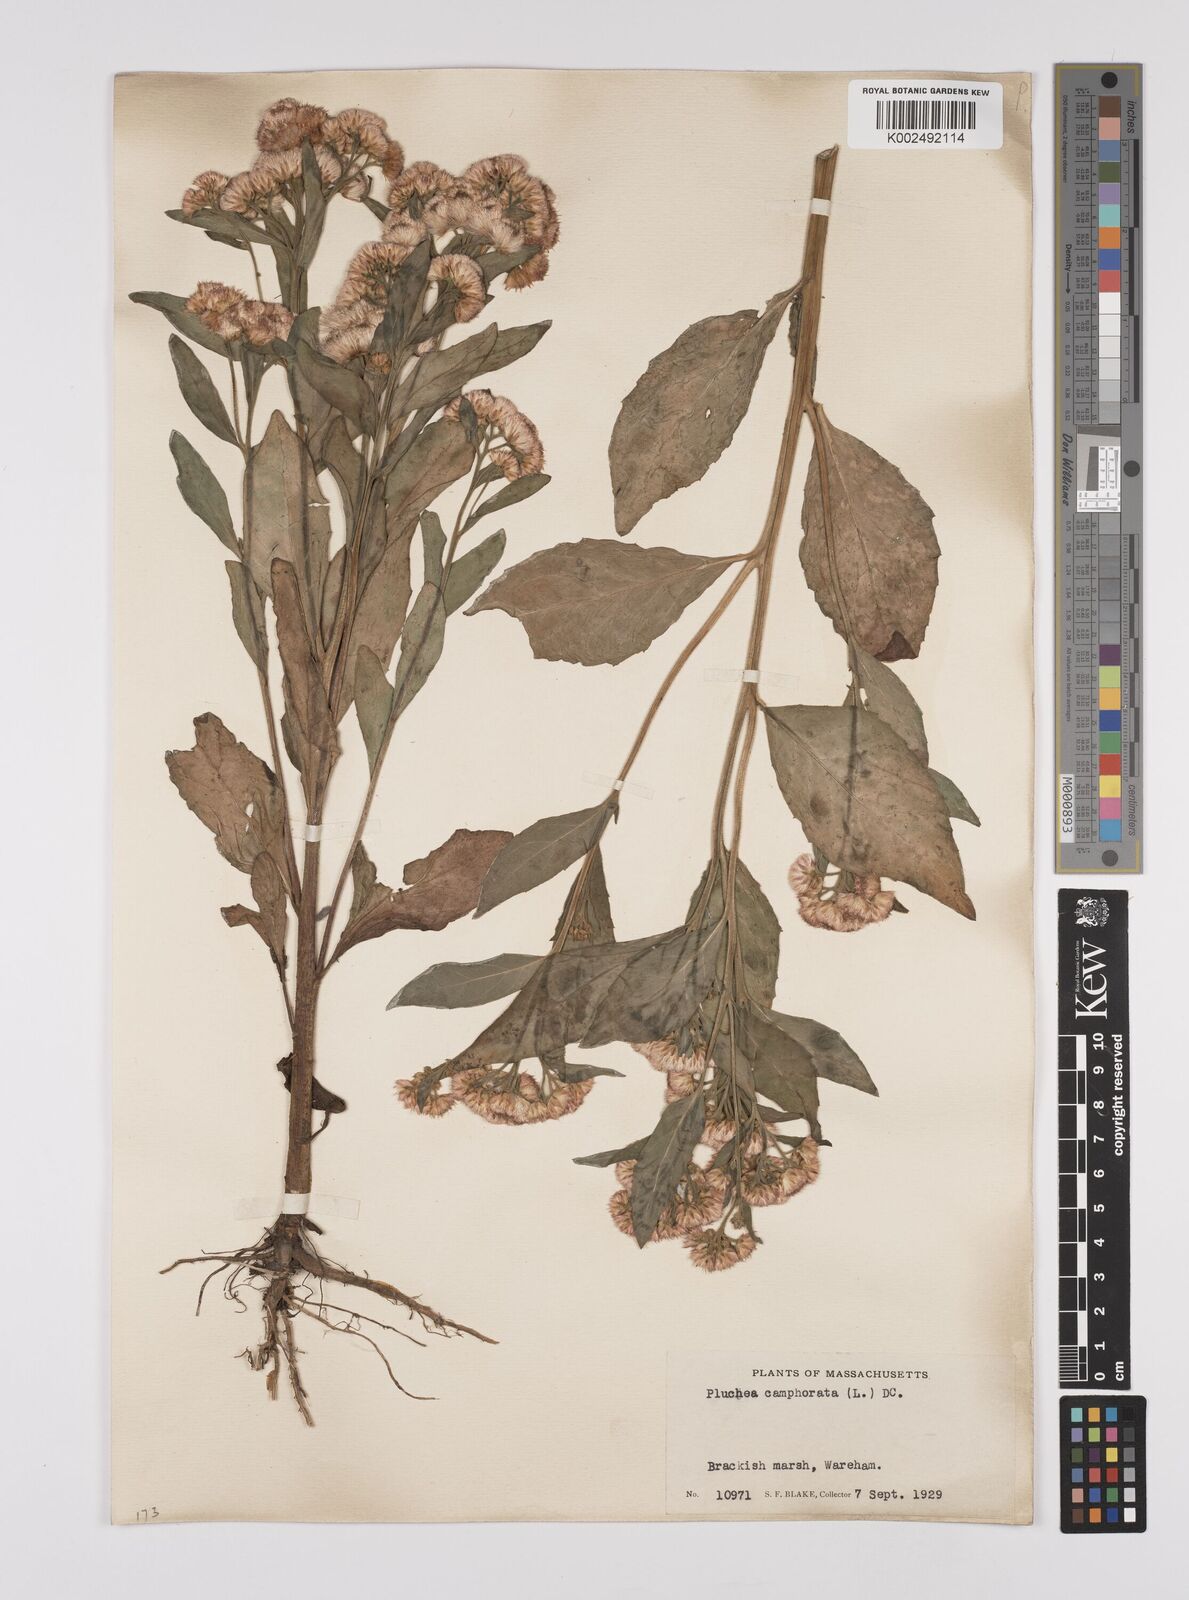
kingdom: Plantae
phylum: Tracheophyta
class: Magnoliopsida
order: Asterales
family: Asteraceae
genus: Pluchea
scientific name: Pluchea camphorata
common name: Camphor pluchea
